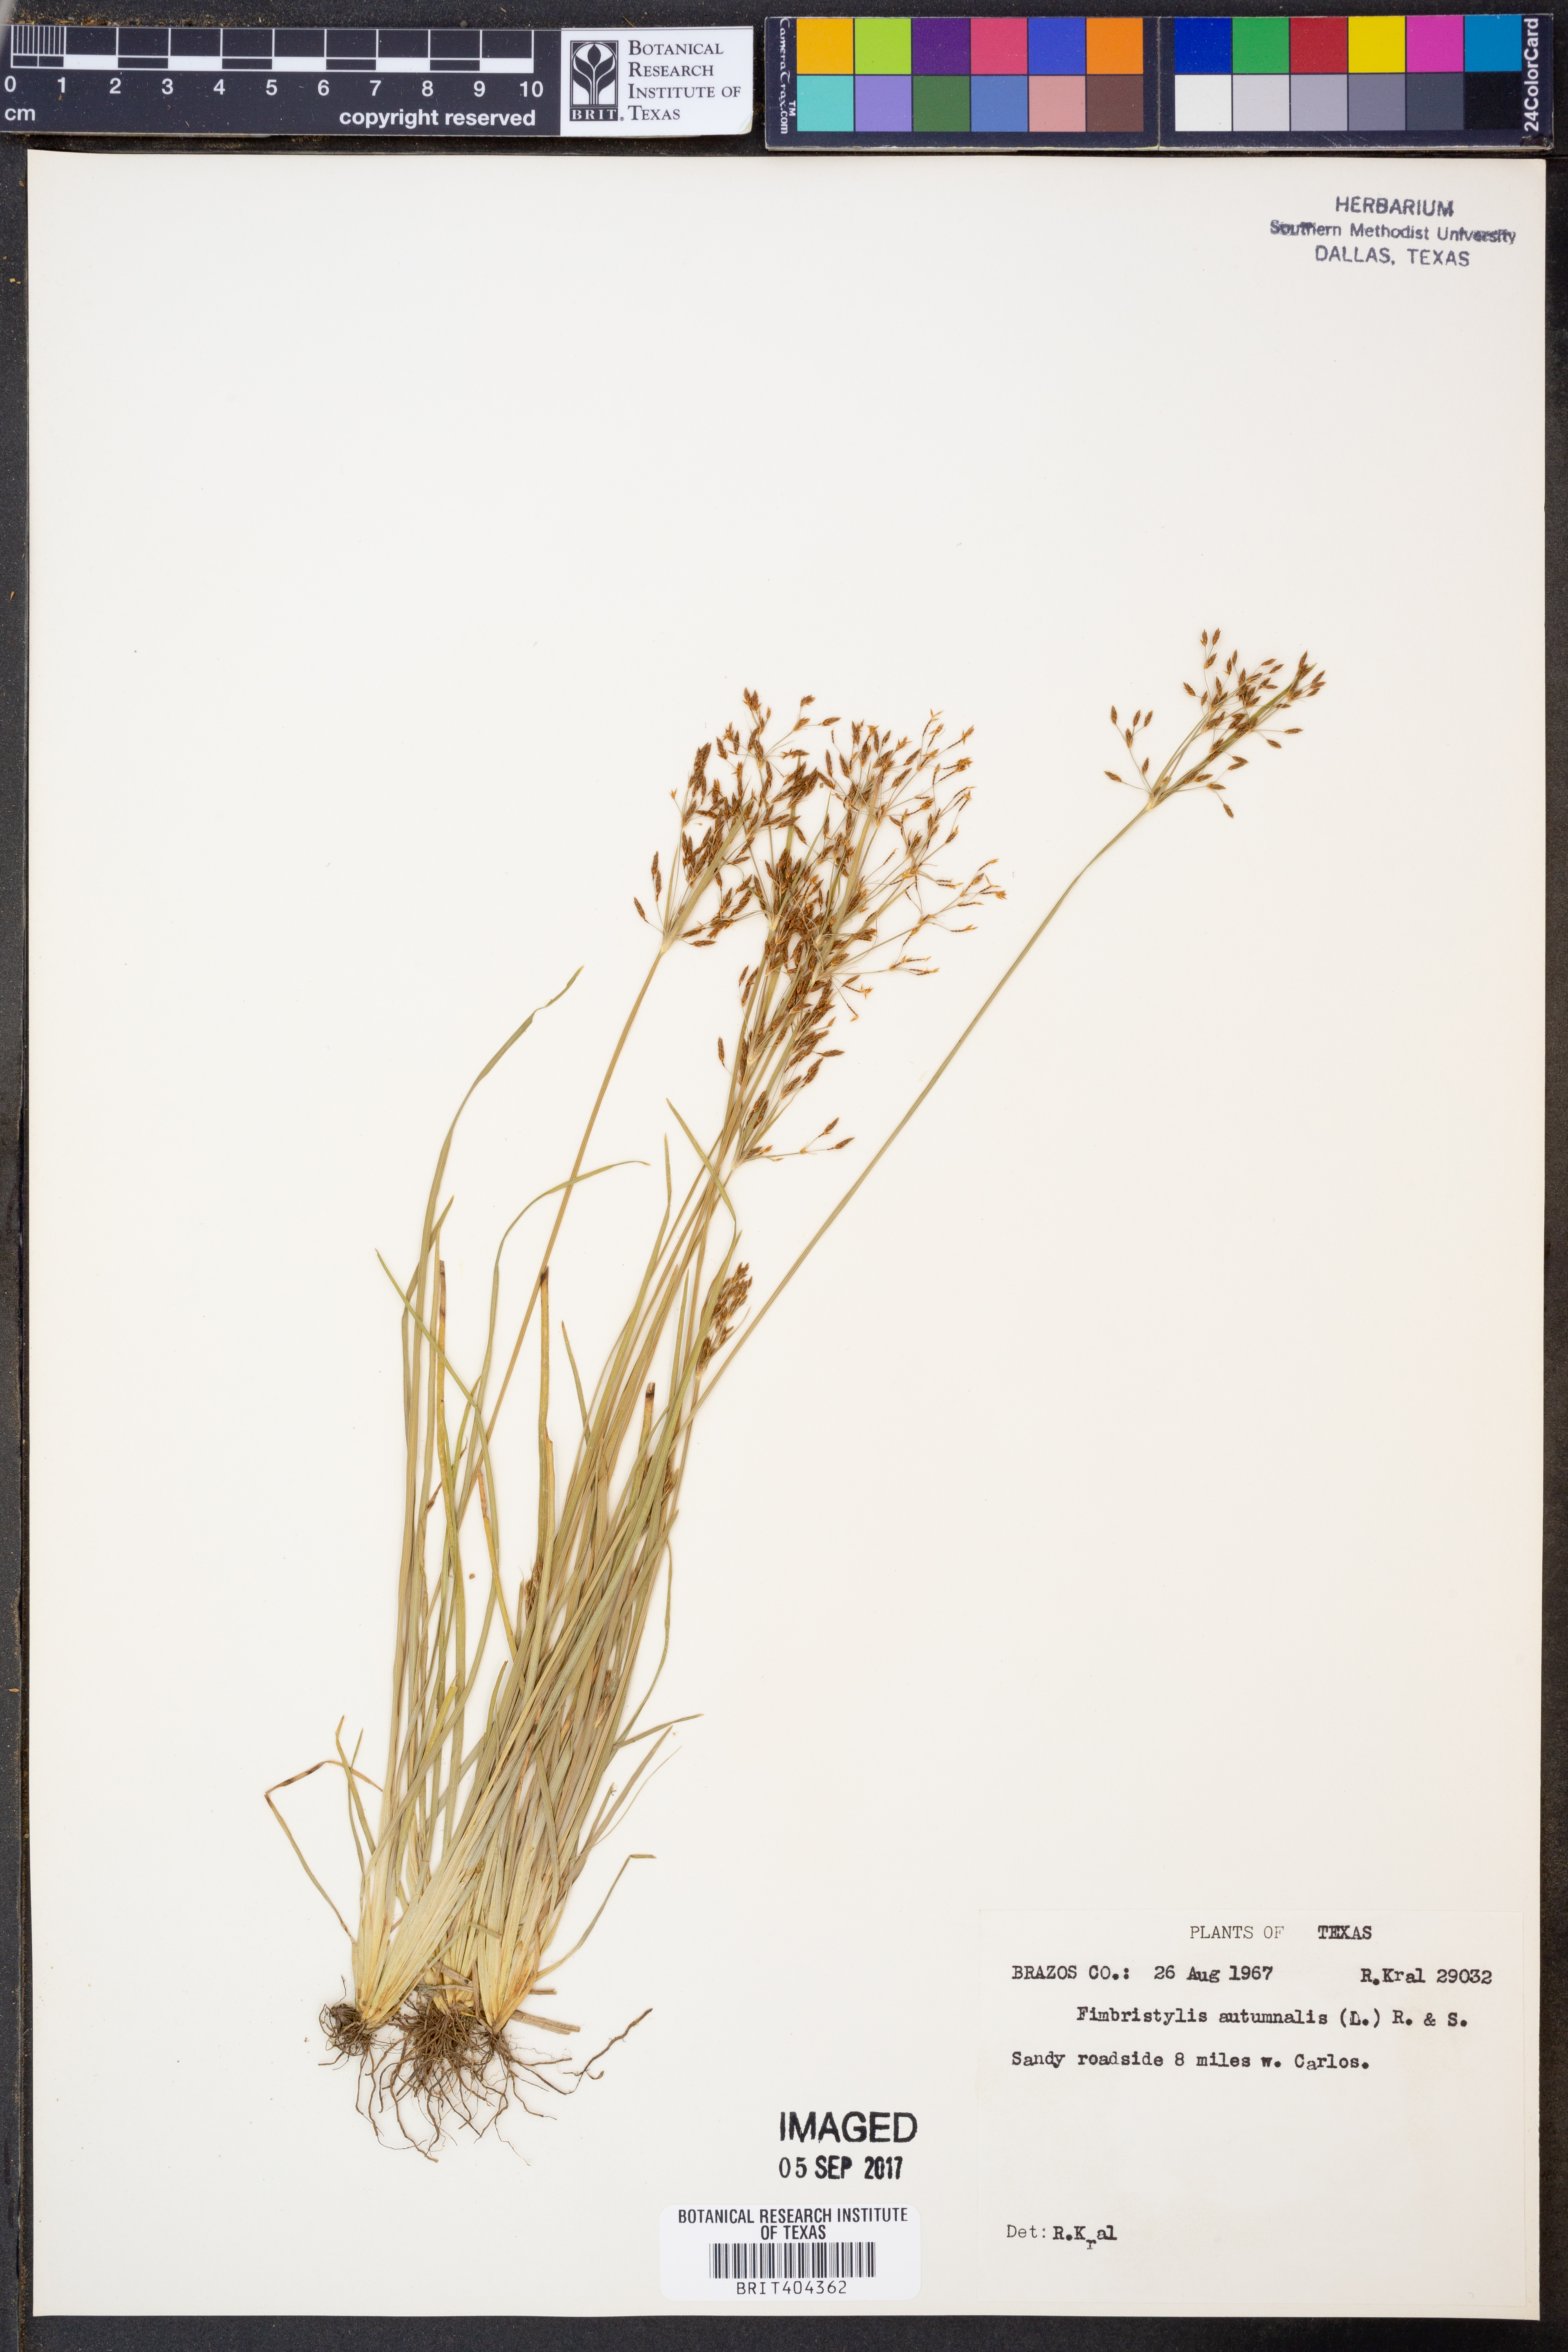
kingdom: Plantae
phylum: Tracheophyta
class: Liliopsida
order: Poales
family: Cyperaceae
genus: Fimbristylis
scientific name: Fimbristylis autumnalis
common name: Slender fimbristylis
